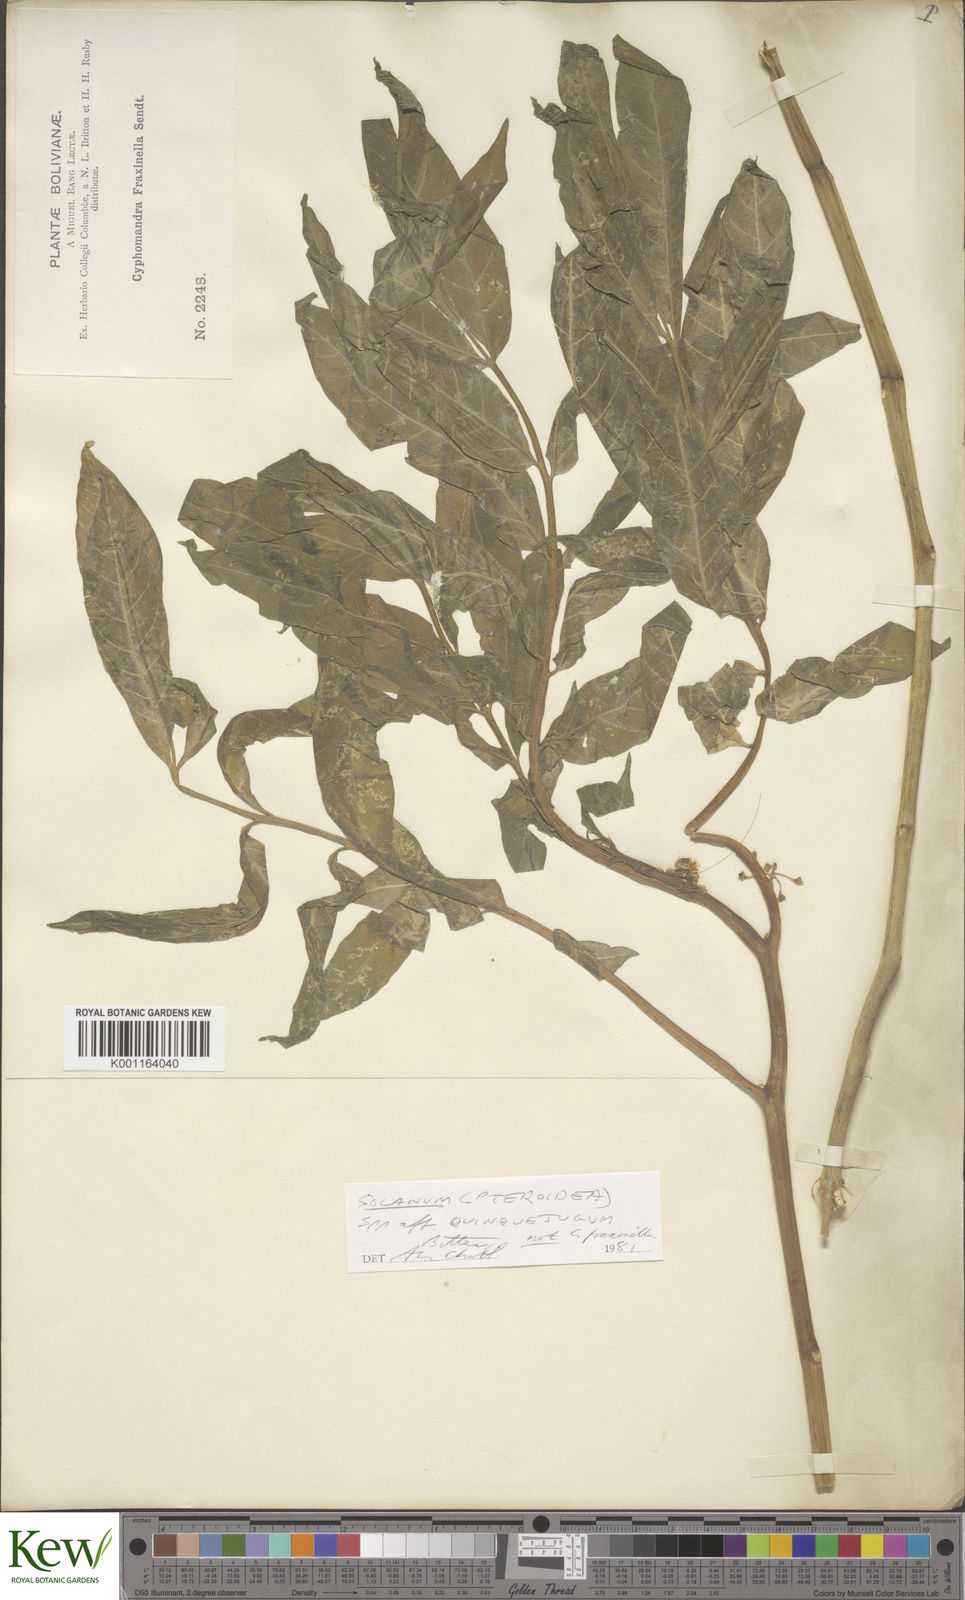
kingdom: Plantae
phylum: Tracheophyta
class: Magnoliopsida
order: Solanales
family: Solanaceae
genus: Solanum
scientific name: Solanum graveolens
